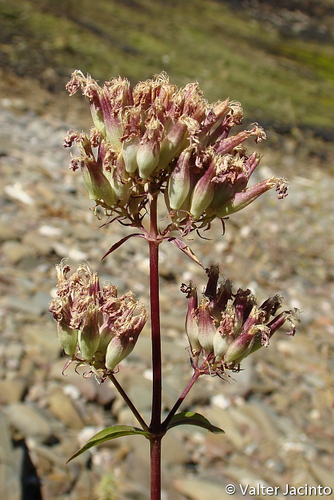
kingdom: Plantae
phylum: Tracheophyta
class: Magnoliopsida
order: Caryophyllales
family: Caryophyllaceae
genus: Saponaria
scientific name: Saponaria officinalis
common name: Soapwort
